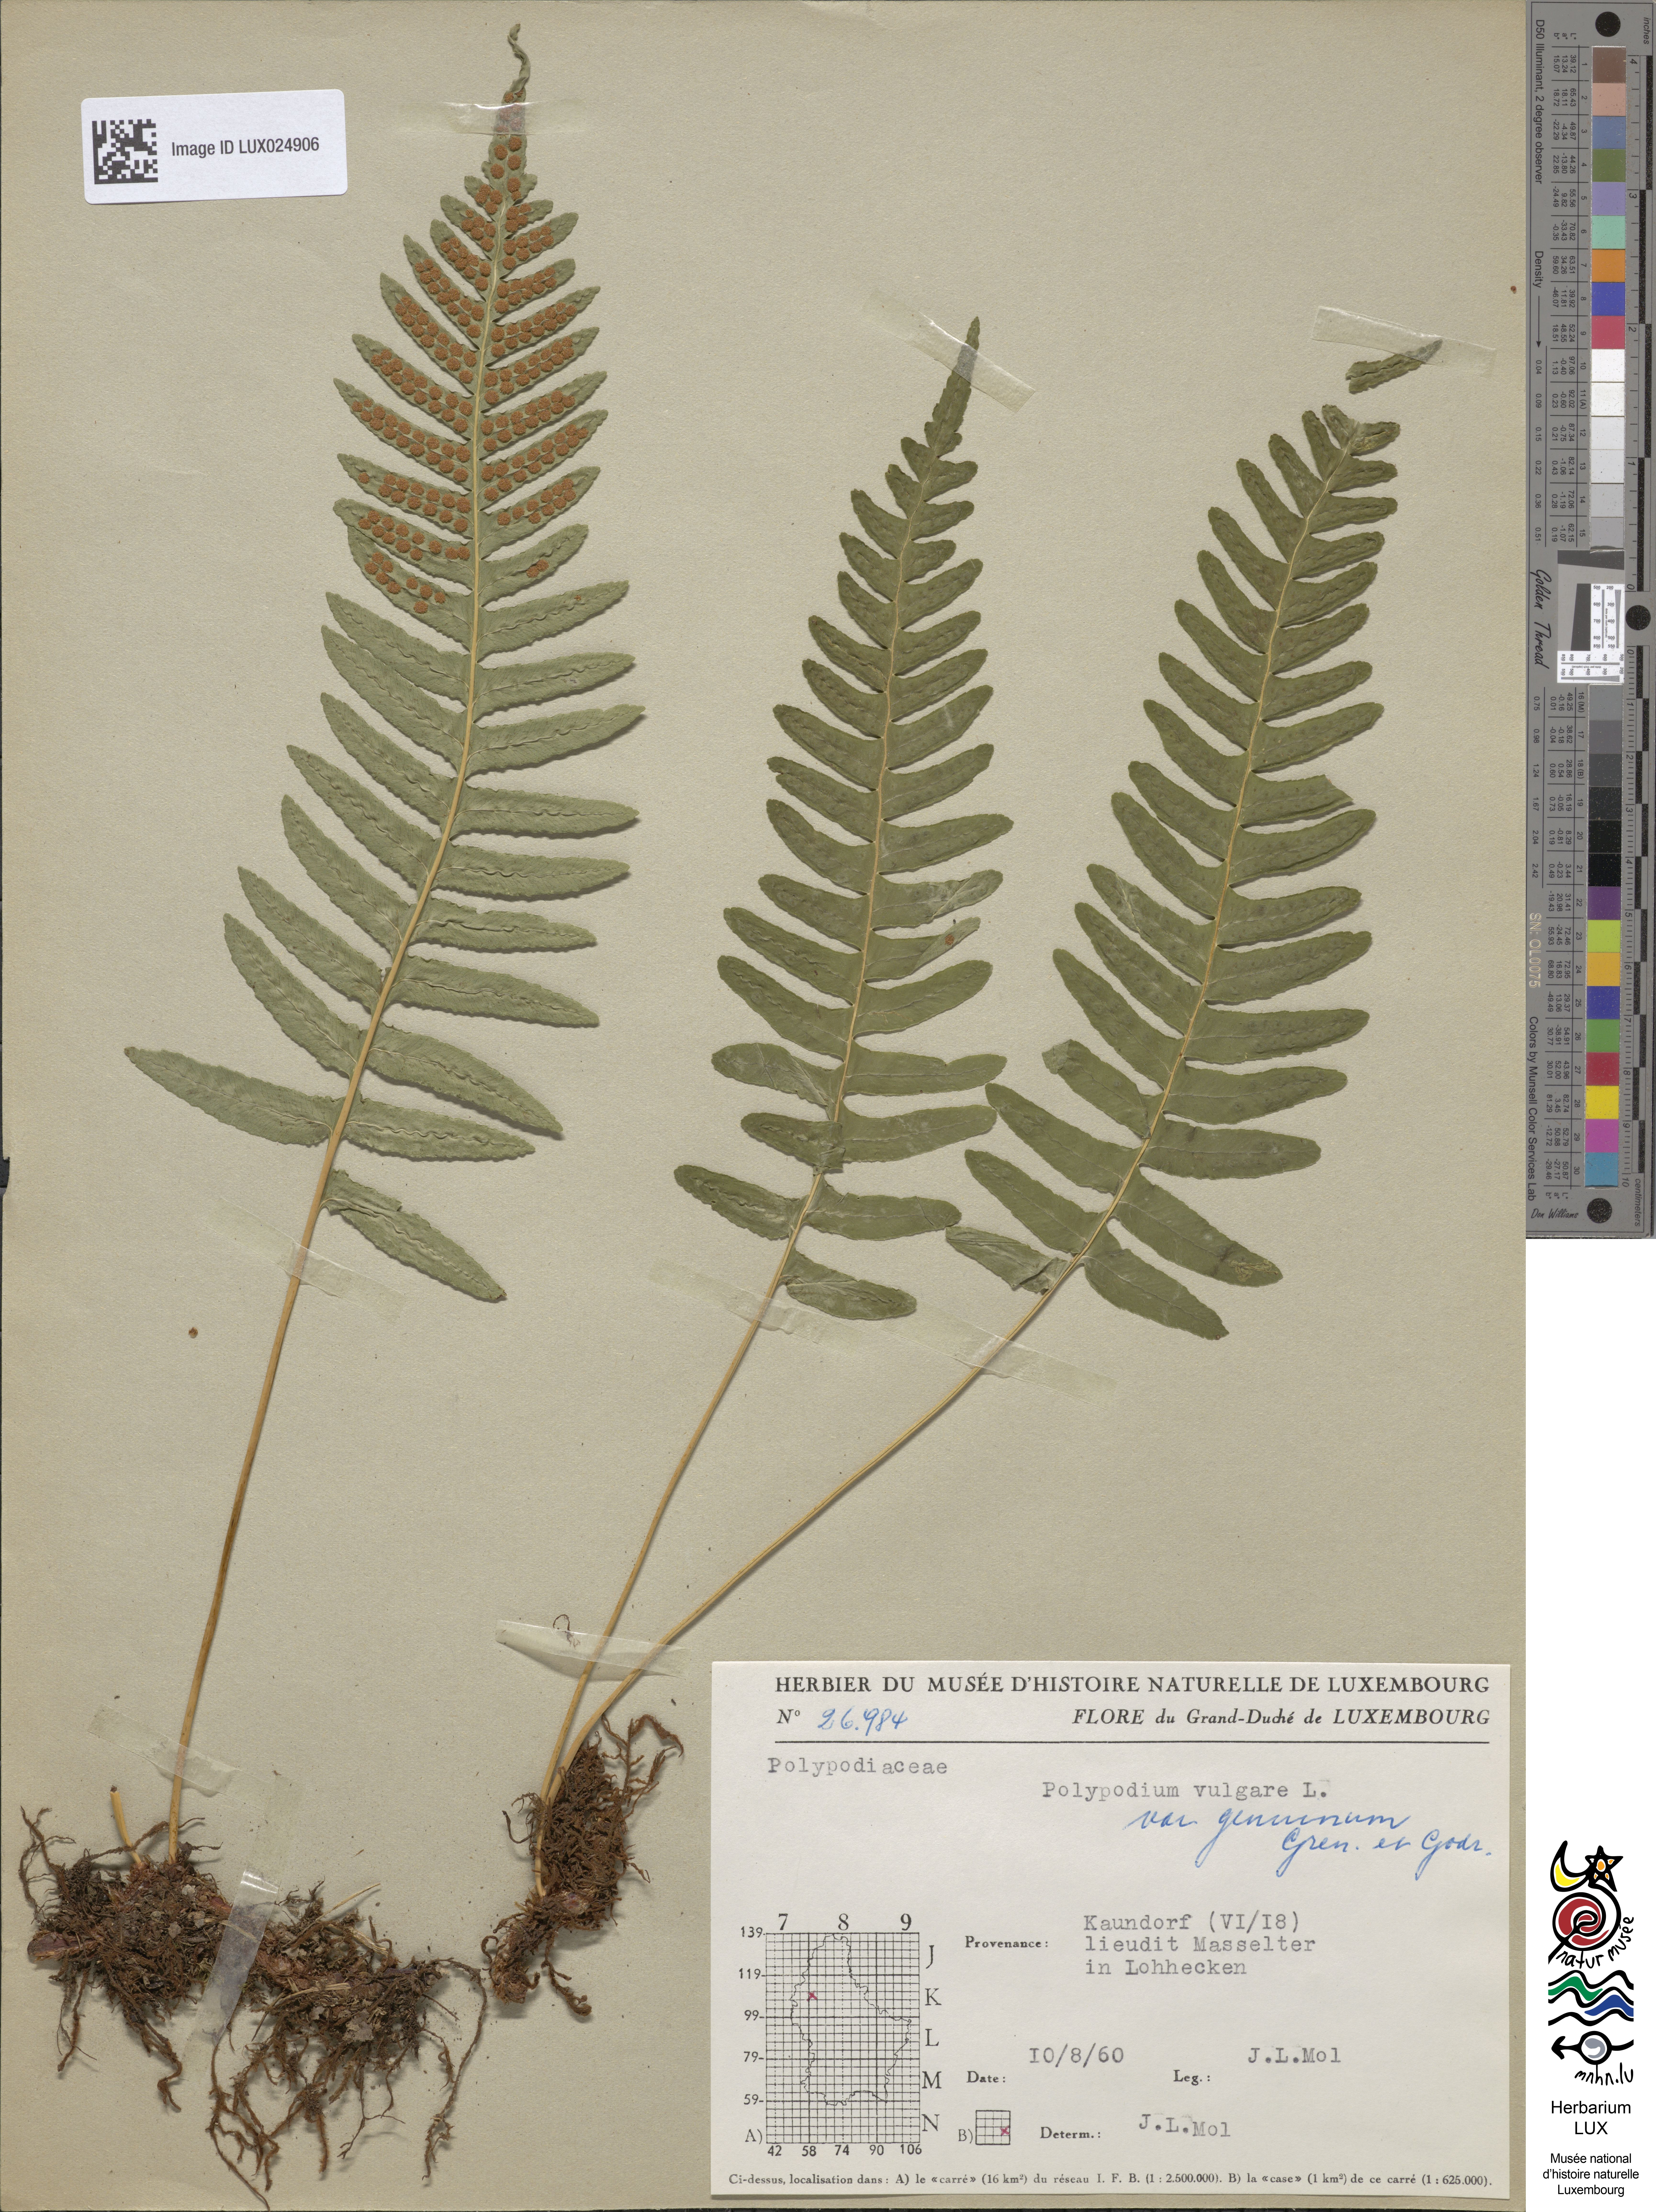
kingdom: Plantae
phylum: Tracheophyta
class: Polypodiopsida
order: Polypodiales
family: Polypodiaceae
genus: Polypodium
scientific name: Polypodium vulgare
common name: Common polypody
